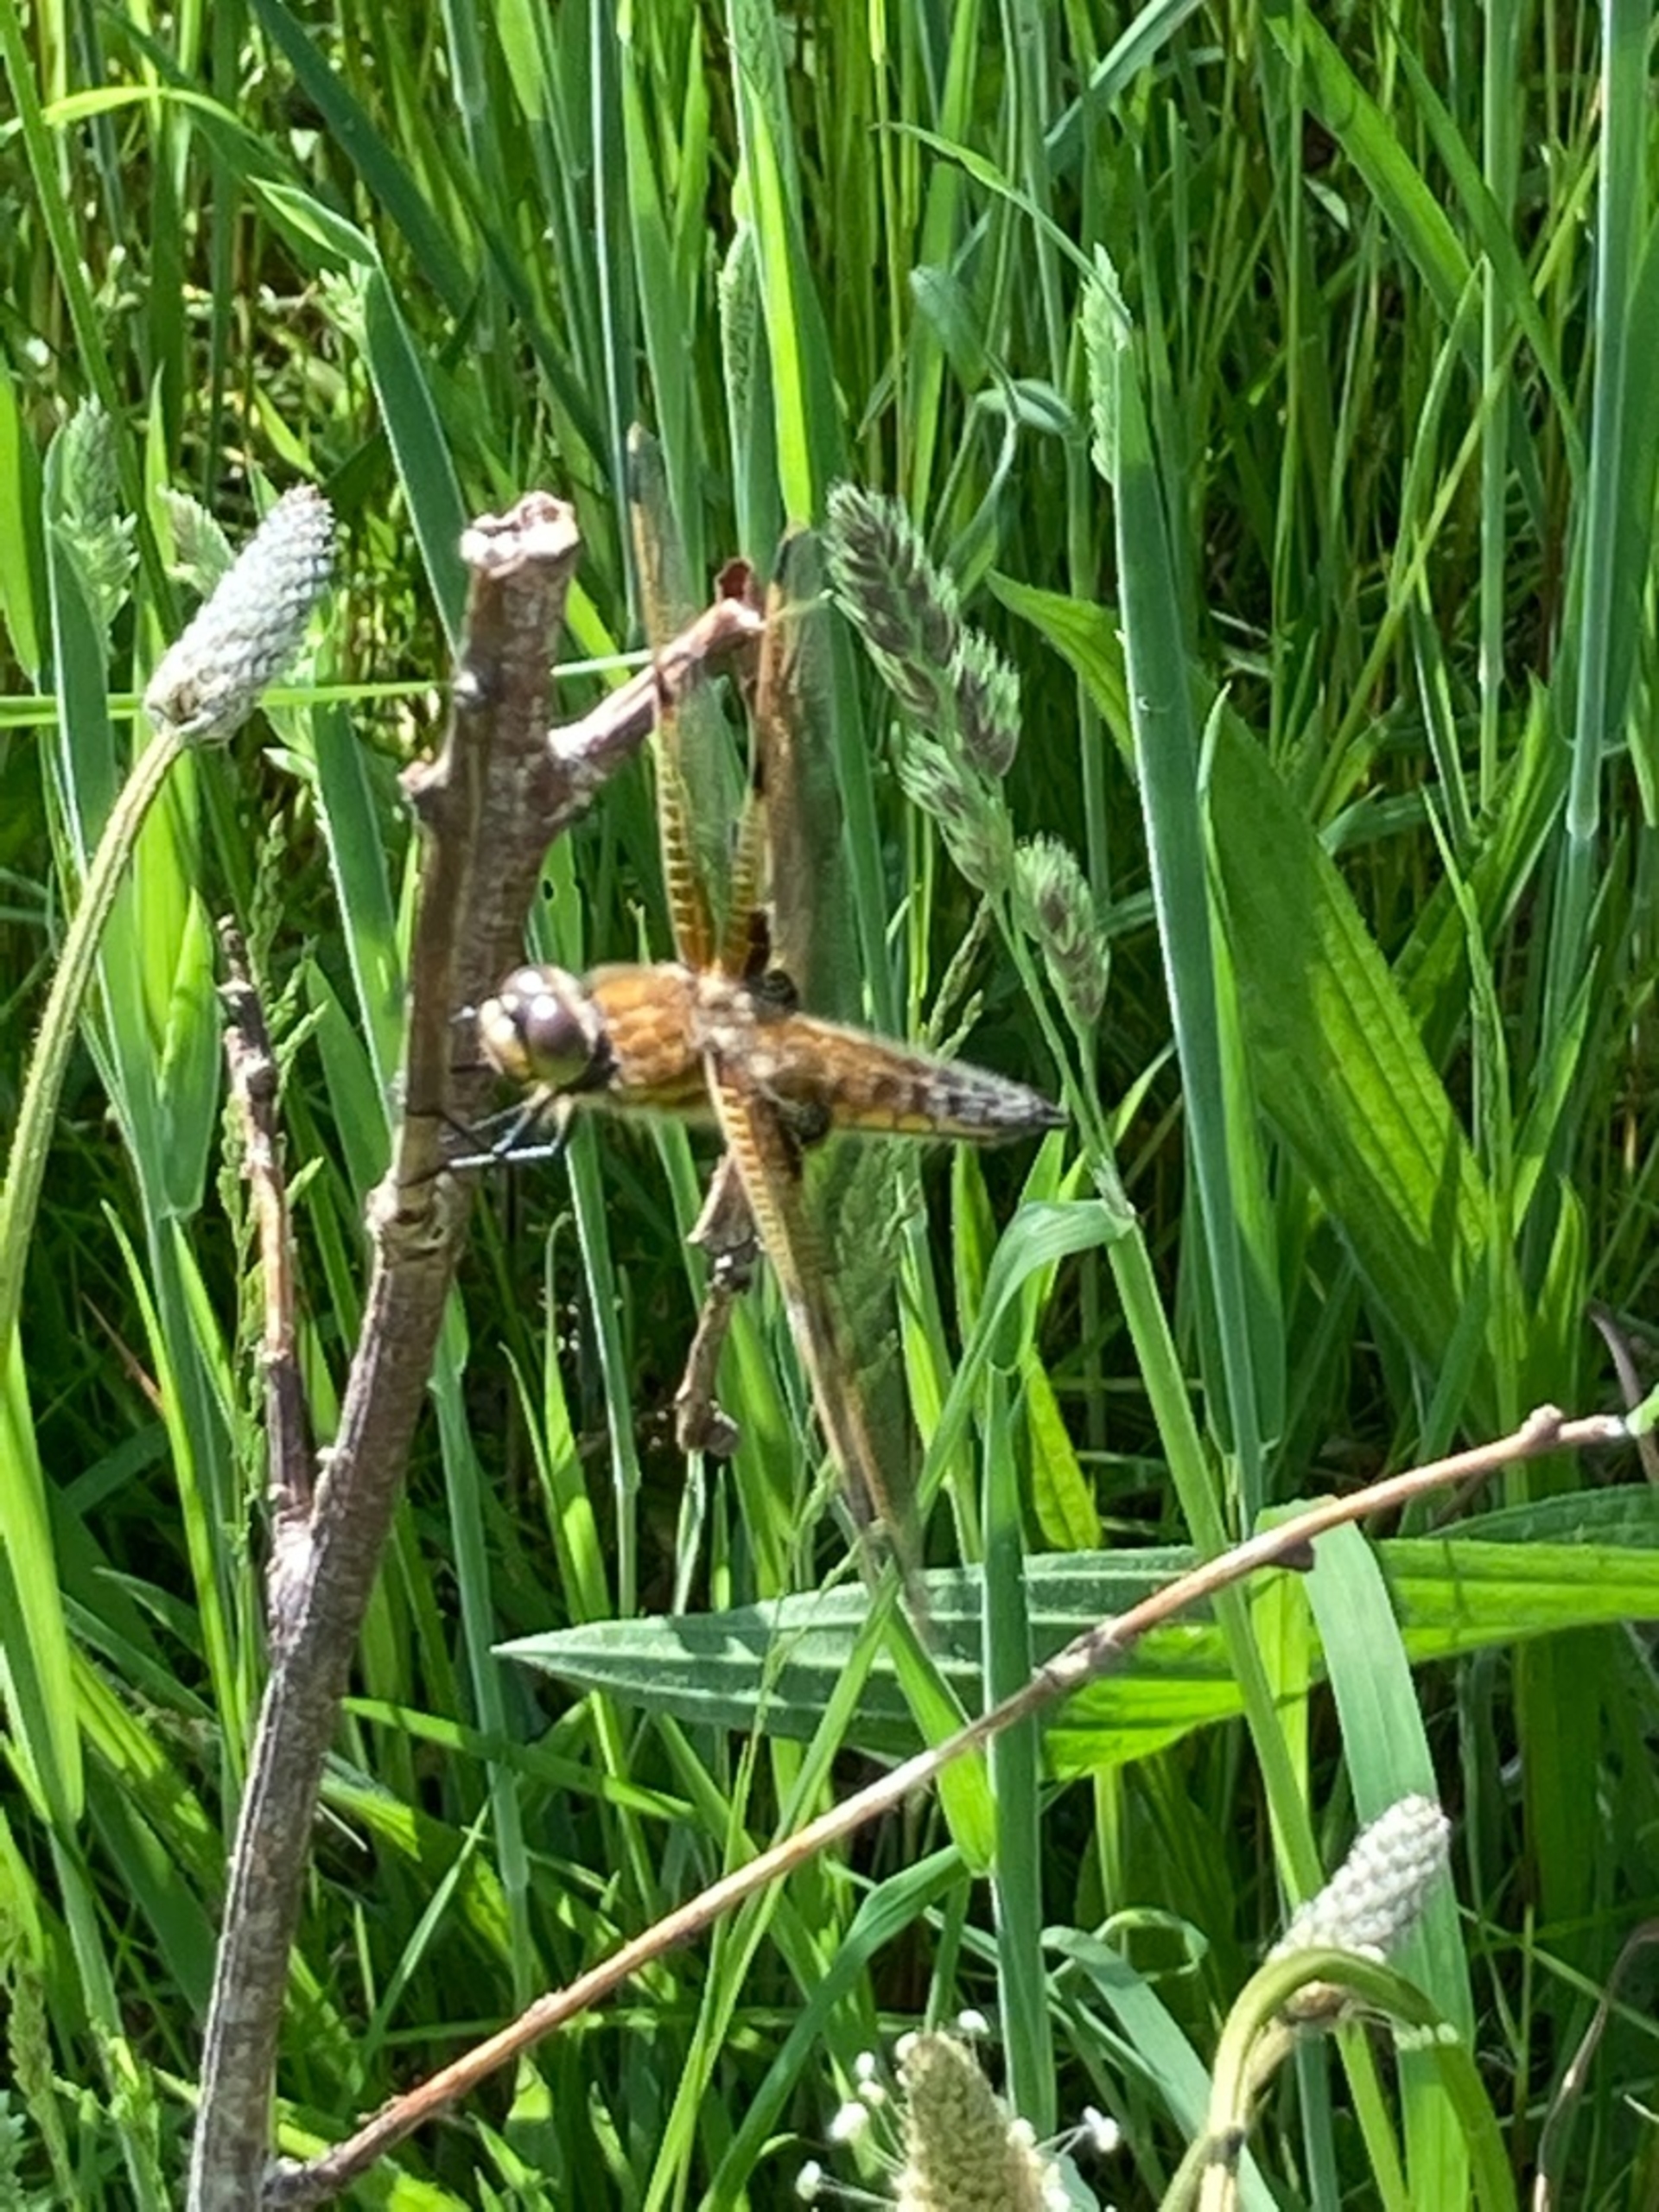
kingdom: Animalia
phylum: Arthropoda
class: Insecta
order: Odonata
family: Libellulidae
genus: Libellula
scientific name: Libellula quadrimaculata
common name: Fireplettet libel
